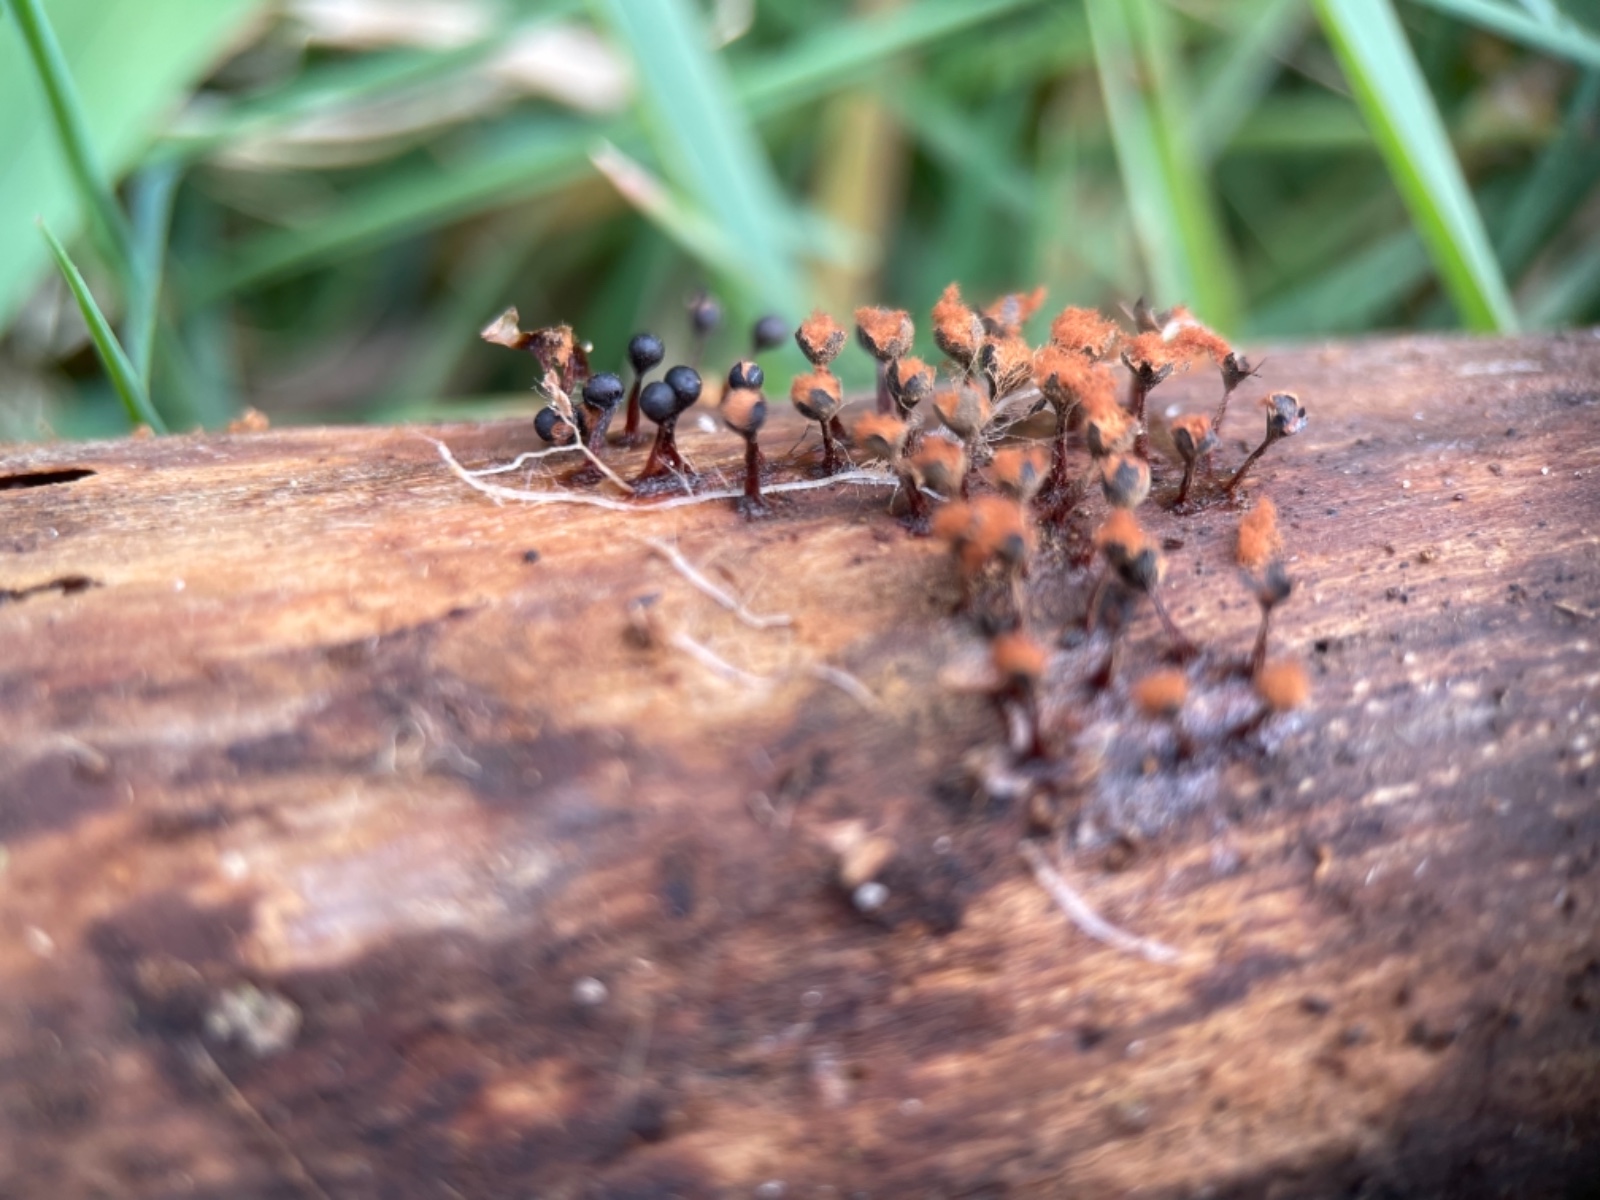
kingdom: Protozoa
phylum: Mycetozoa
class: Myxomycetes
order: Trichiales
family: Trichiaceae
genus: Metatrichia
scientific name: Metatrichia floriformis
